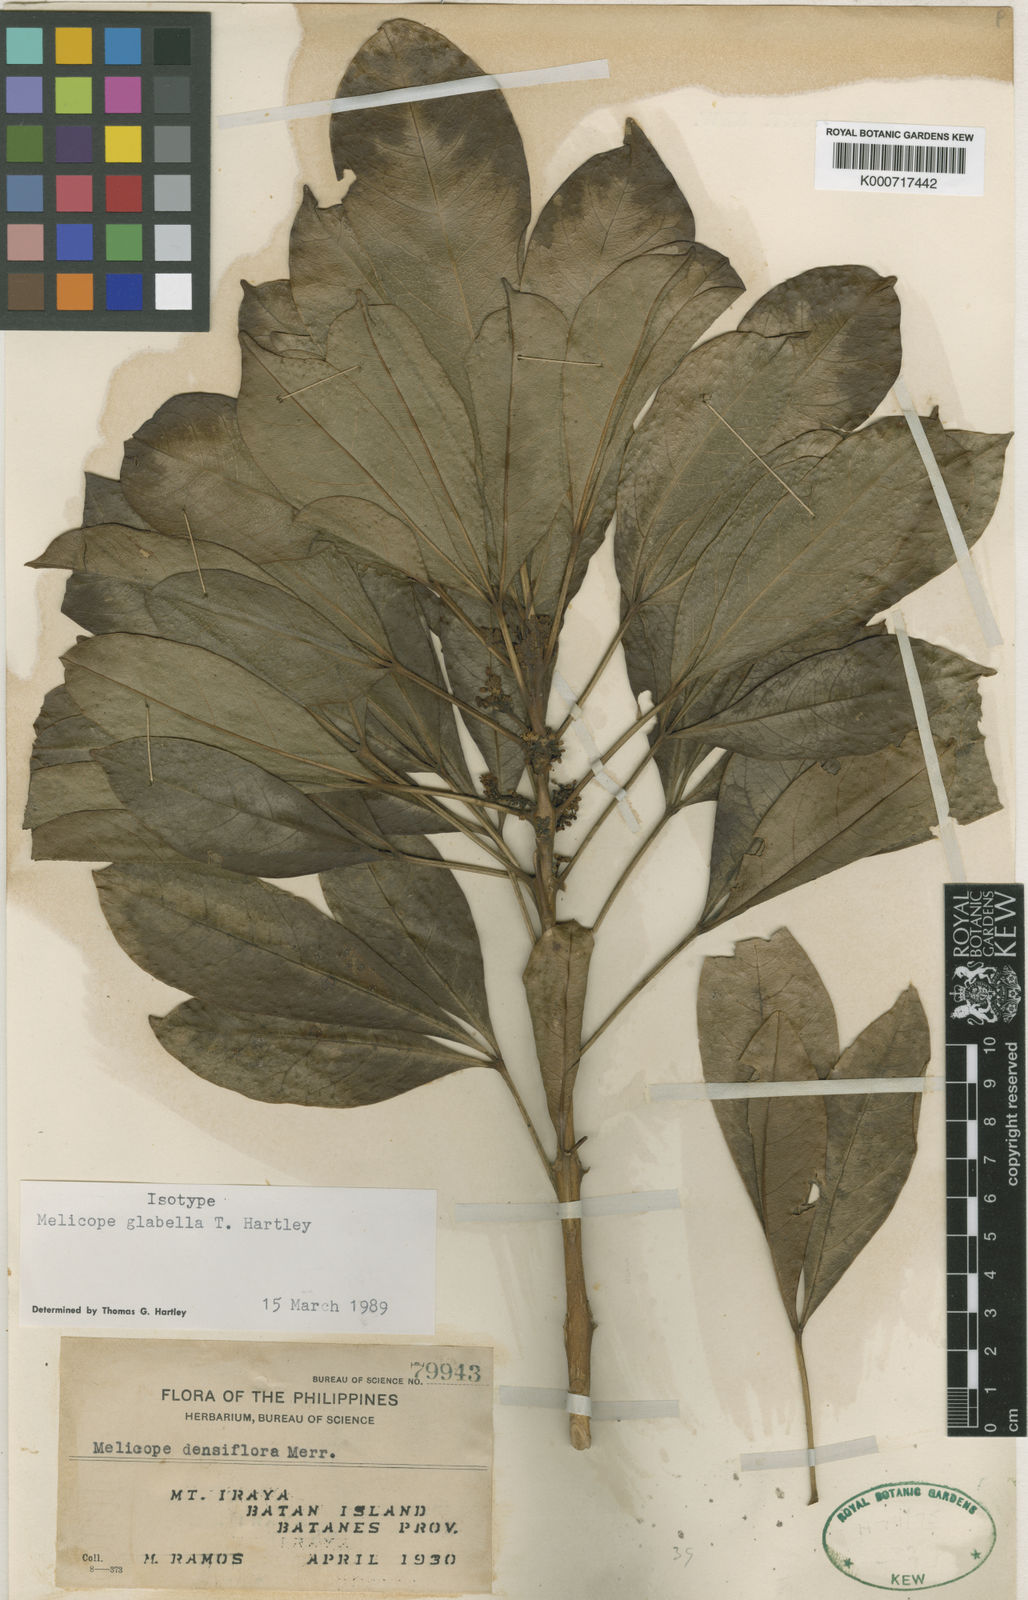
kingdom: Plantae
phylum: Tracheophyta
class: Magnoliopsida
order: Sapindales
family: Rutaceae
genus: Melicope
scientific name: Melicope glabella
